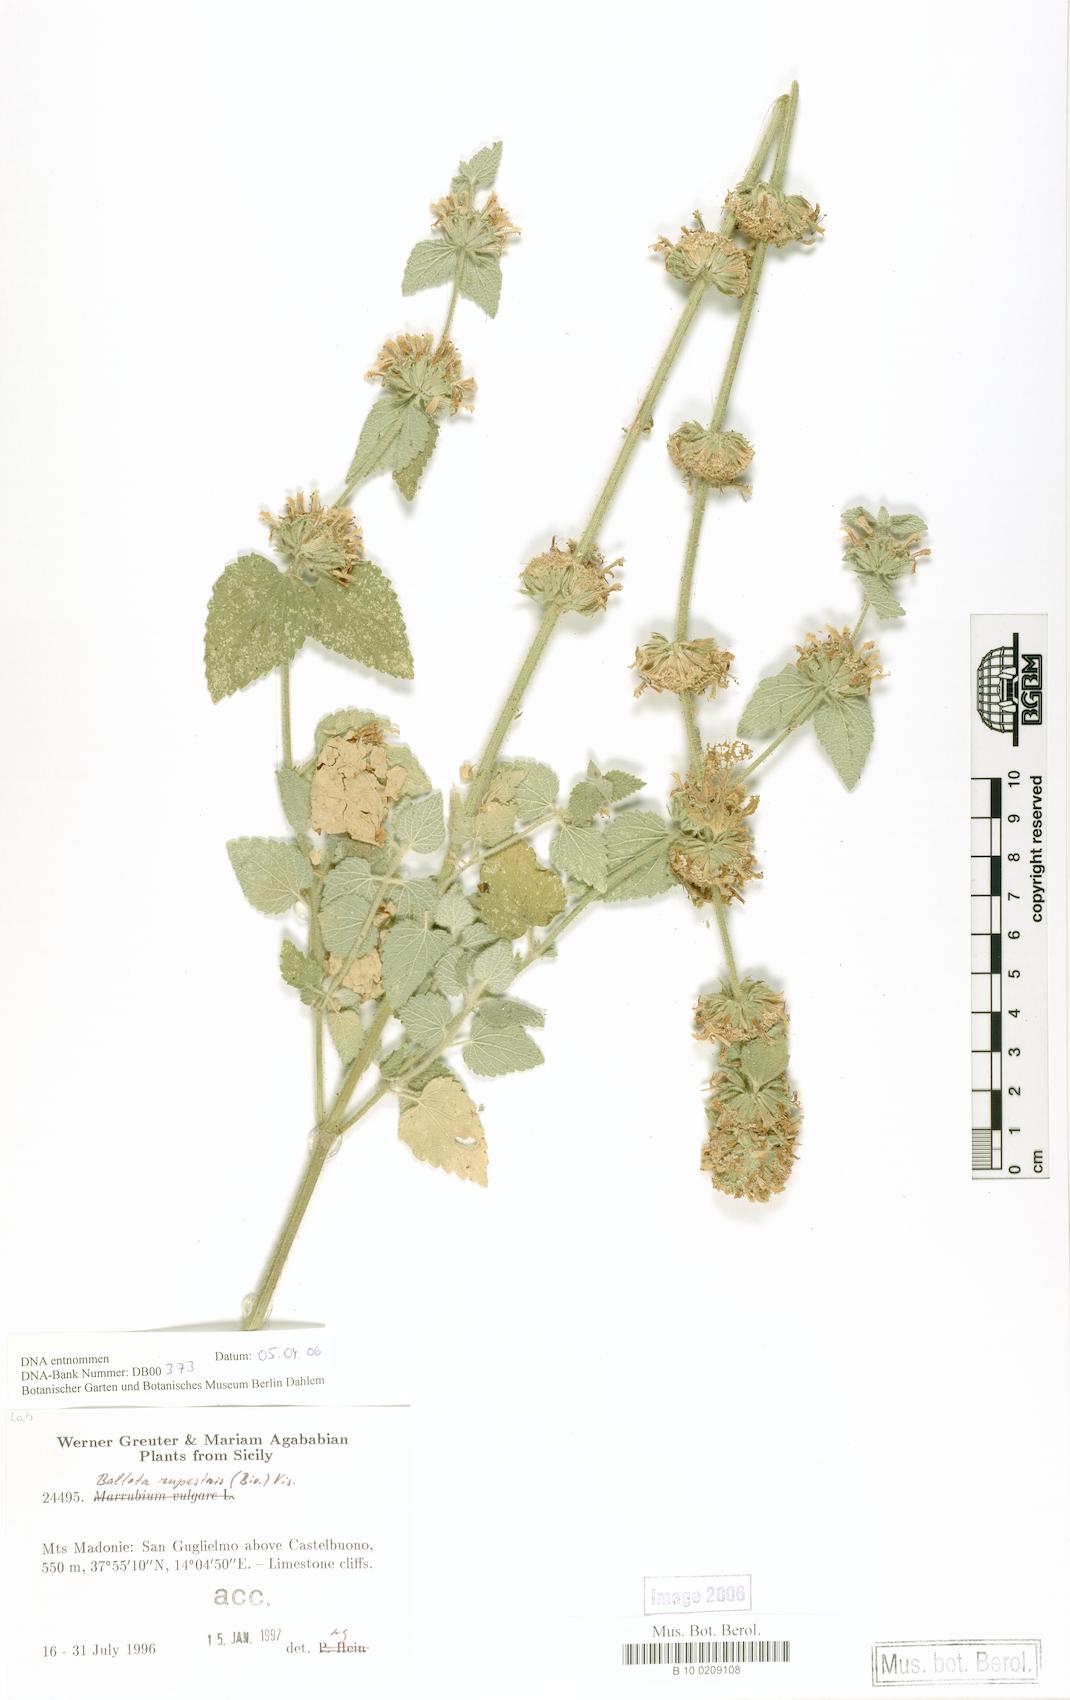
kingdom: Plantae
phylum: Tracheophyta
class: Magnoliopsida
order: Lamiales
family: Lamiaceae
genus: Pseudodictamnus
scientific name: Pseudodictamnus hispanicus
